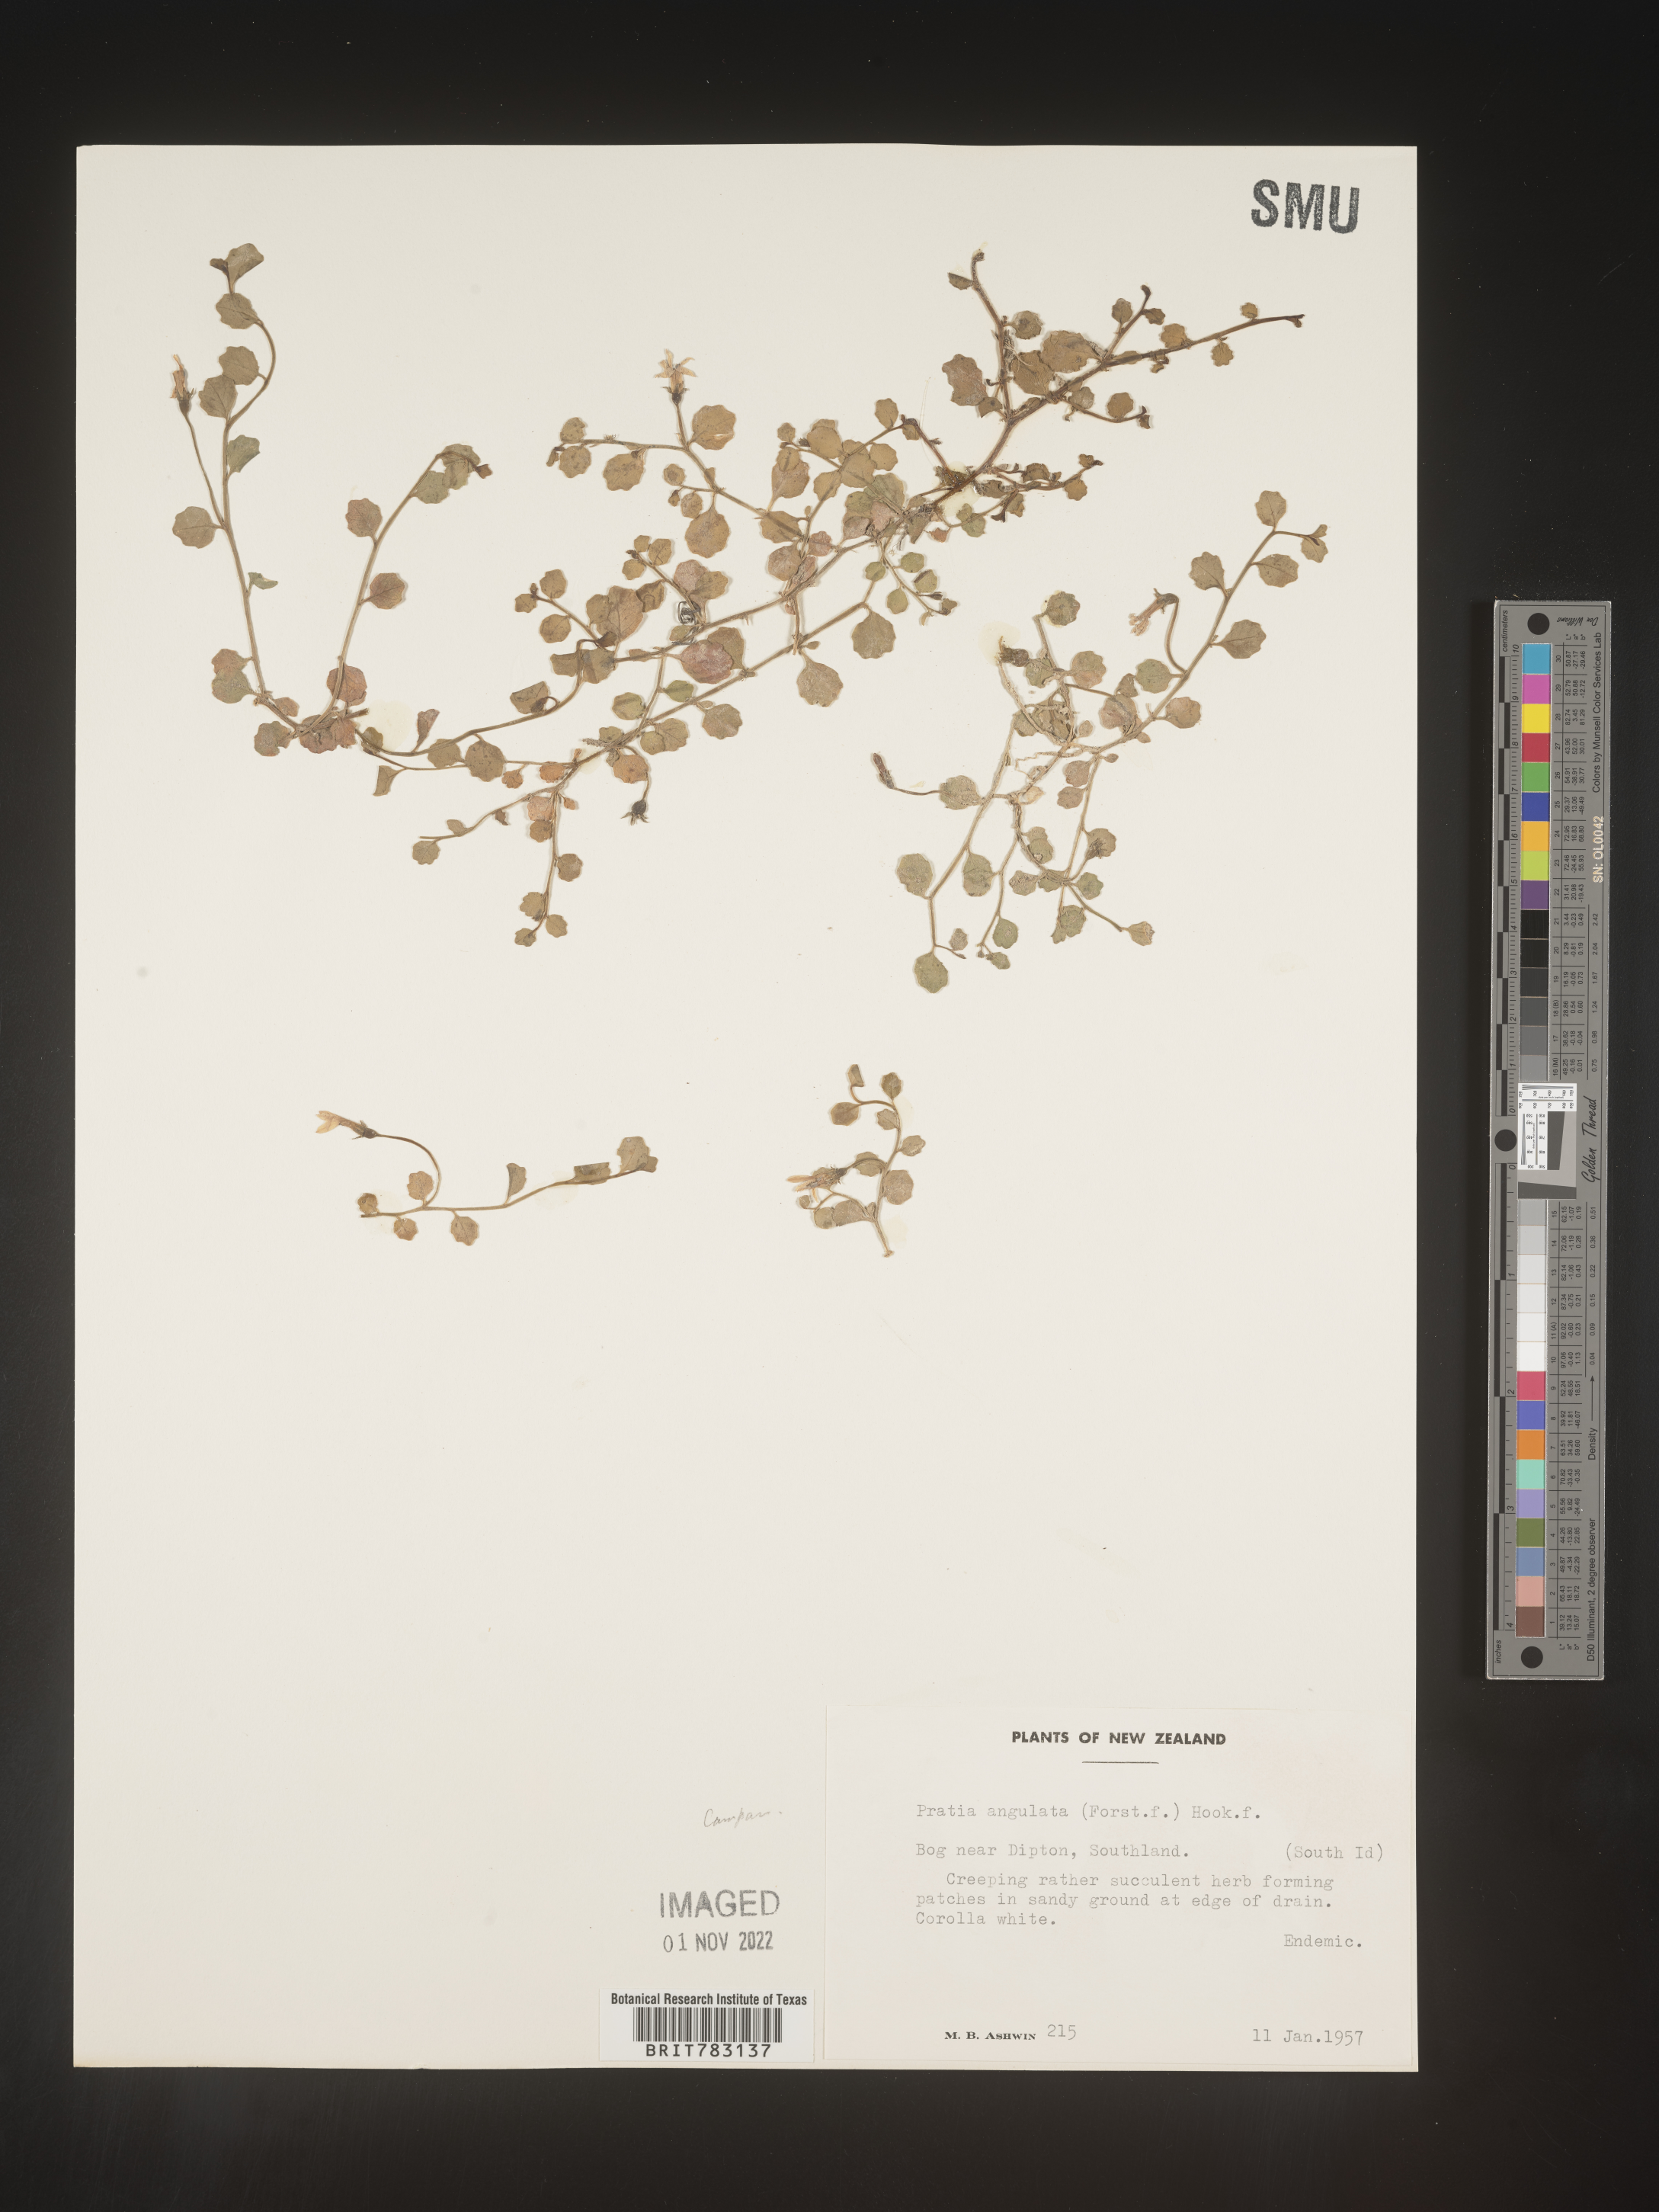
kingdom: Plantae
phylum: Tracheophyta
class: Magnoliopsida
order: Asterales
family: Campanulaceae
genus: Pratia
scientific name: Pratia
